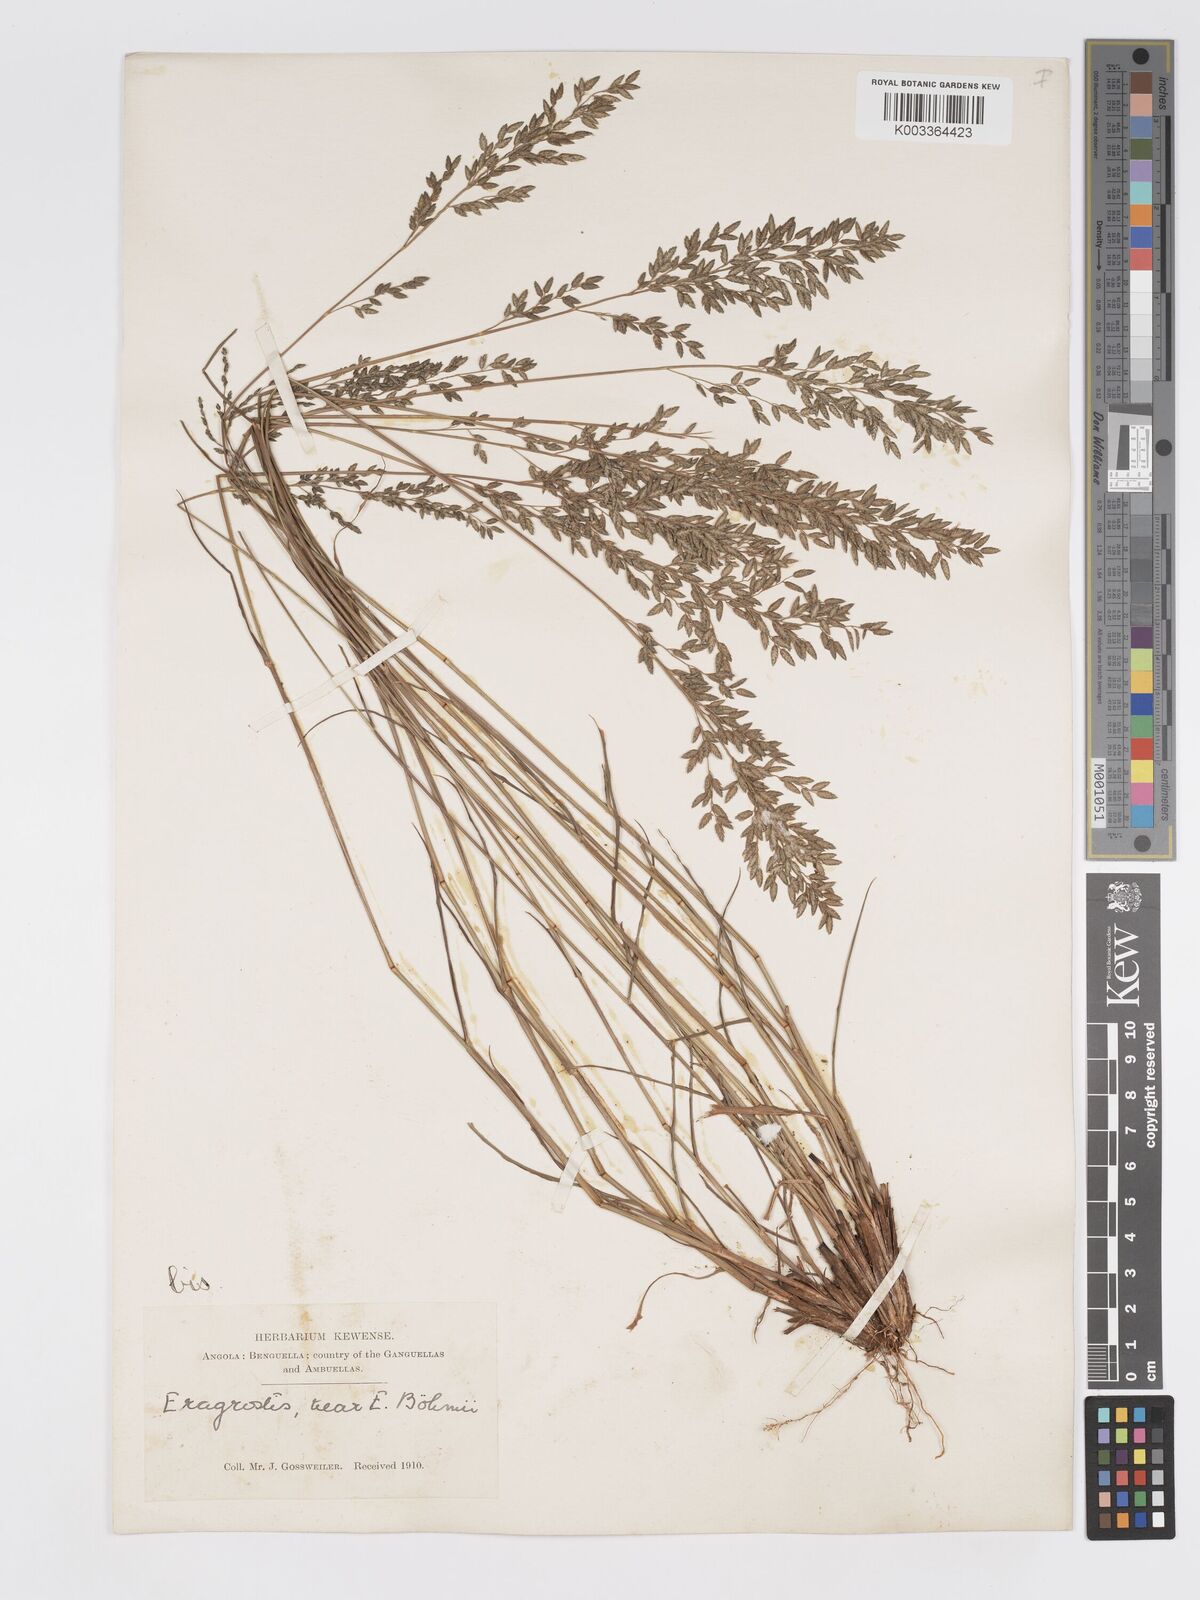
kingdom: Plantae
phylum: Tracheophyta
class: Liliopsida
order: Poales
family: Poaceae
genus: Eragrostis
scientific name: Eragrostis racemosa
